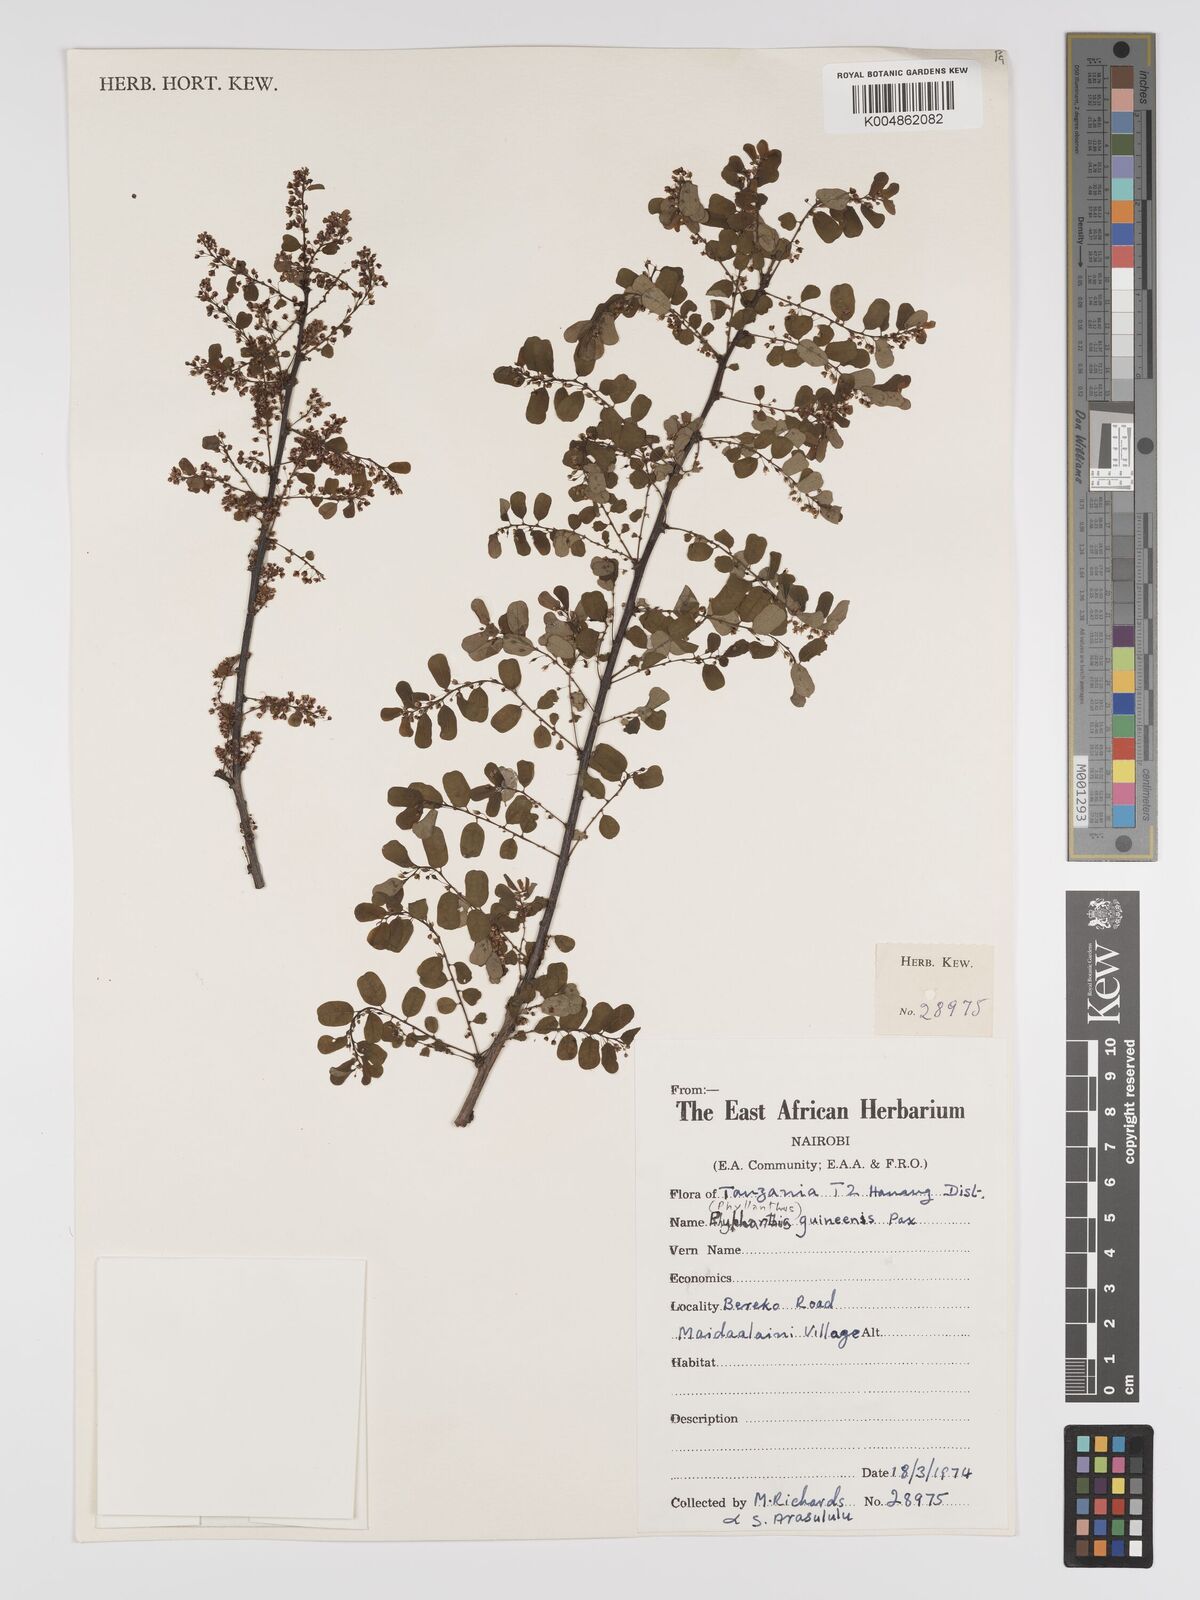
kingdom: Plantae
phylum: Tracheophyta
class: Magnoliopsida
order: Malpighiales
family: Phyllanthaceae
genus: Phyllanthus
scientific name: Phyllanthus ovalifolius
